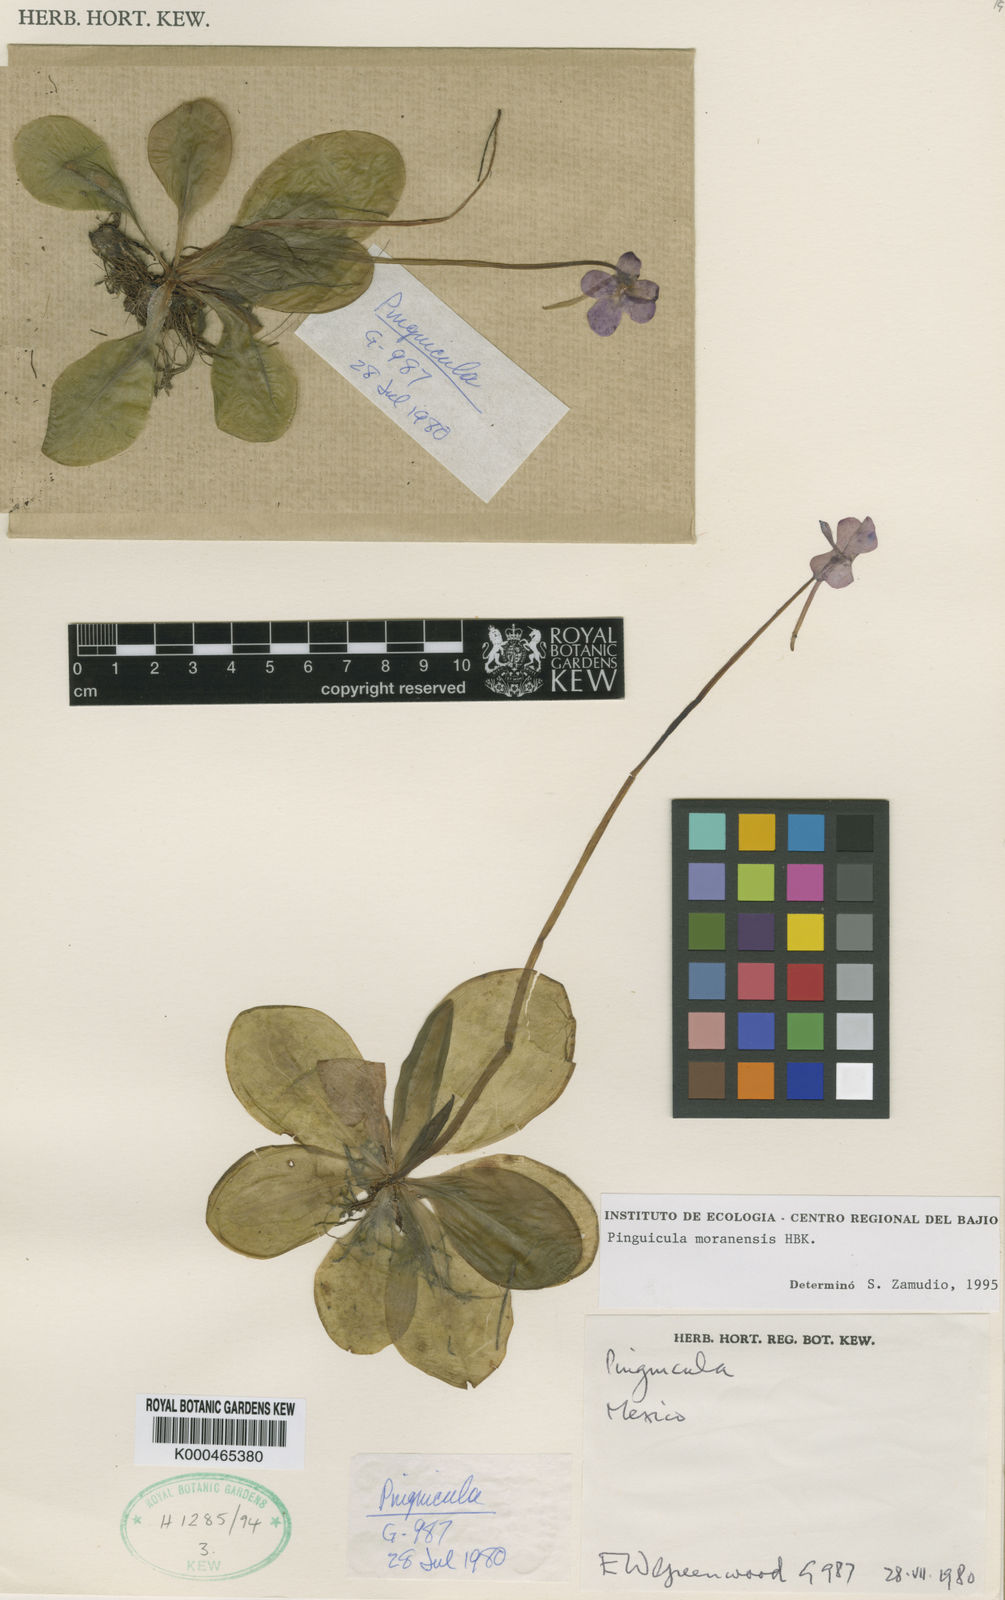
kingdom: Plantae
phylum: Tracheophyta
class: Magnoliopsida
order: Lamiales
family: Lentibulariaceae
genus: Pinguicula
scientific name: Pinguicula moranensis
